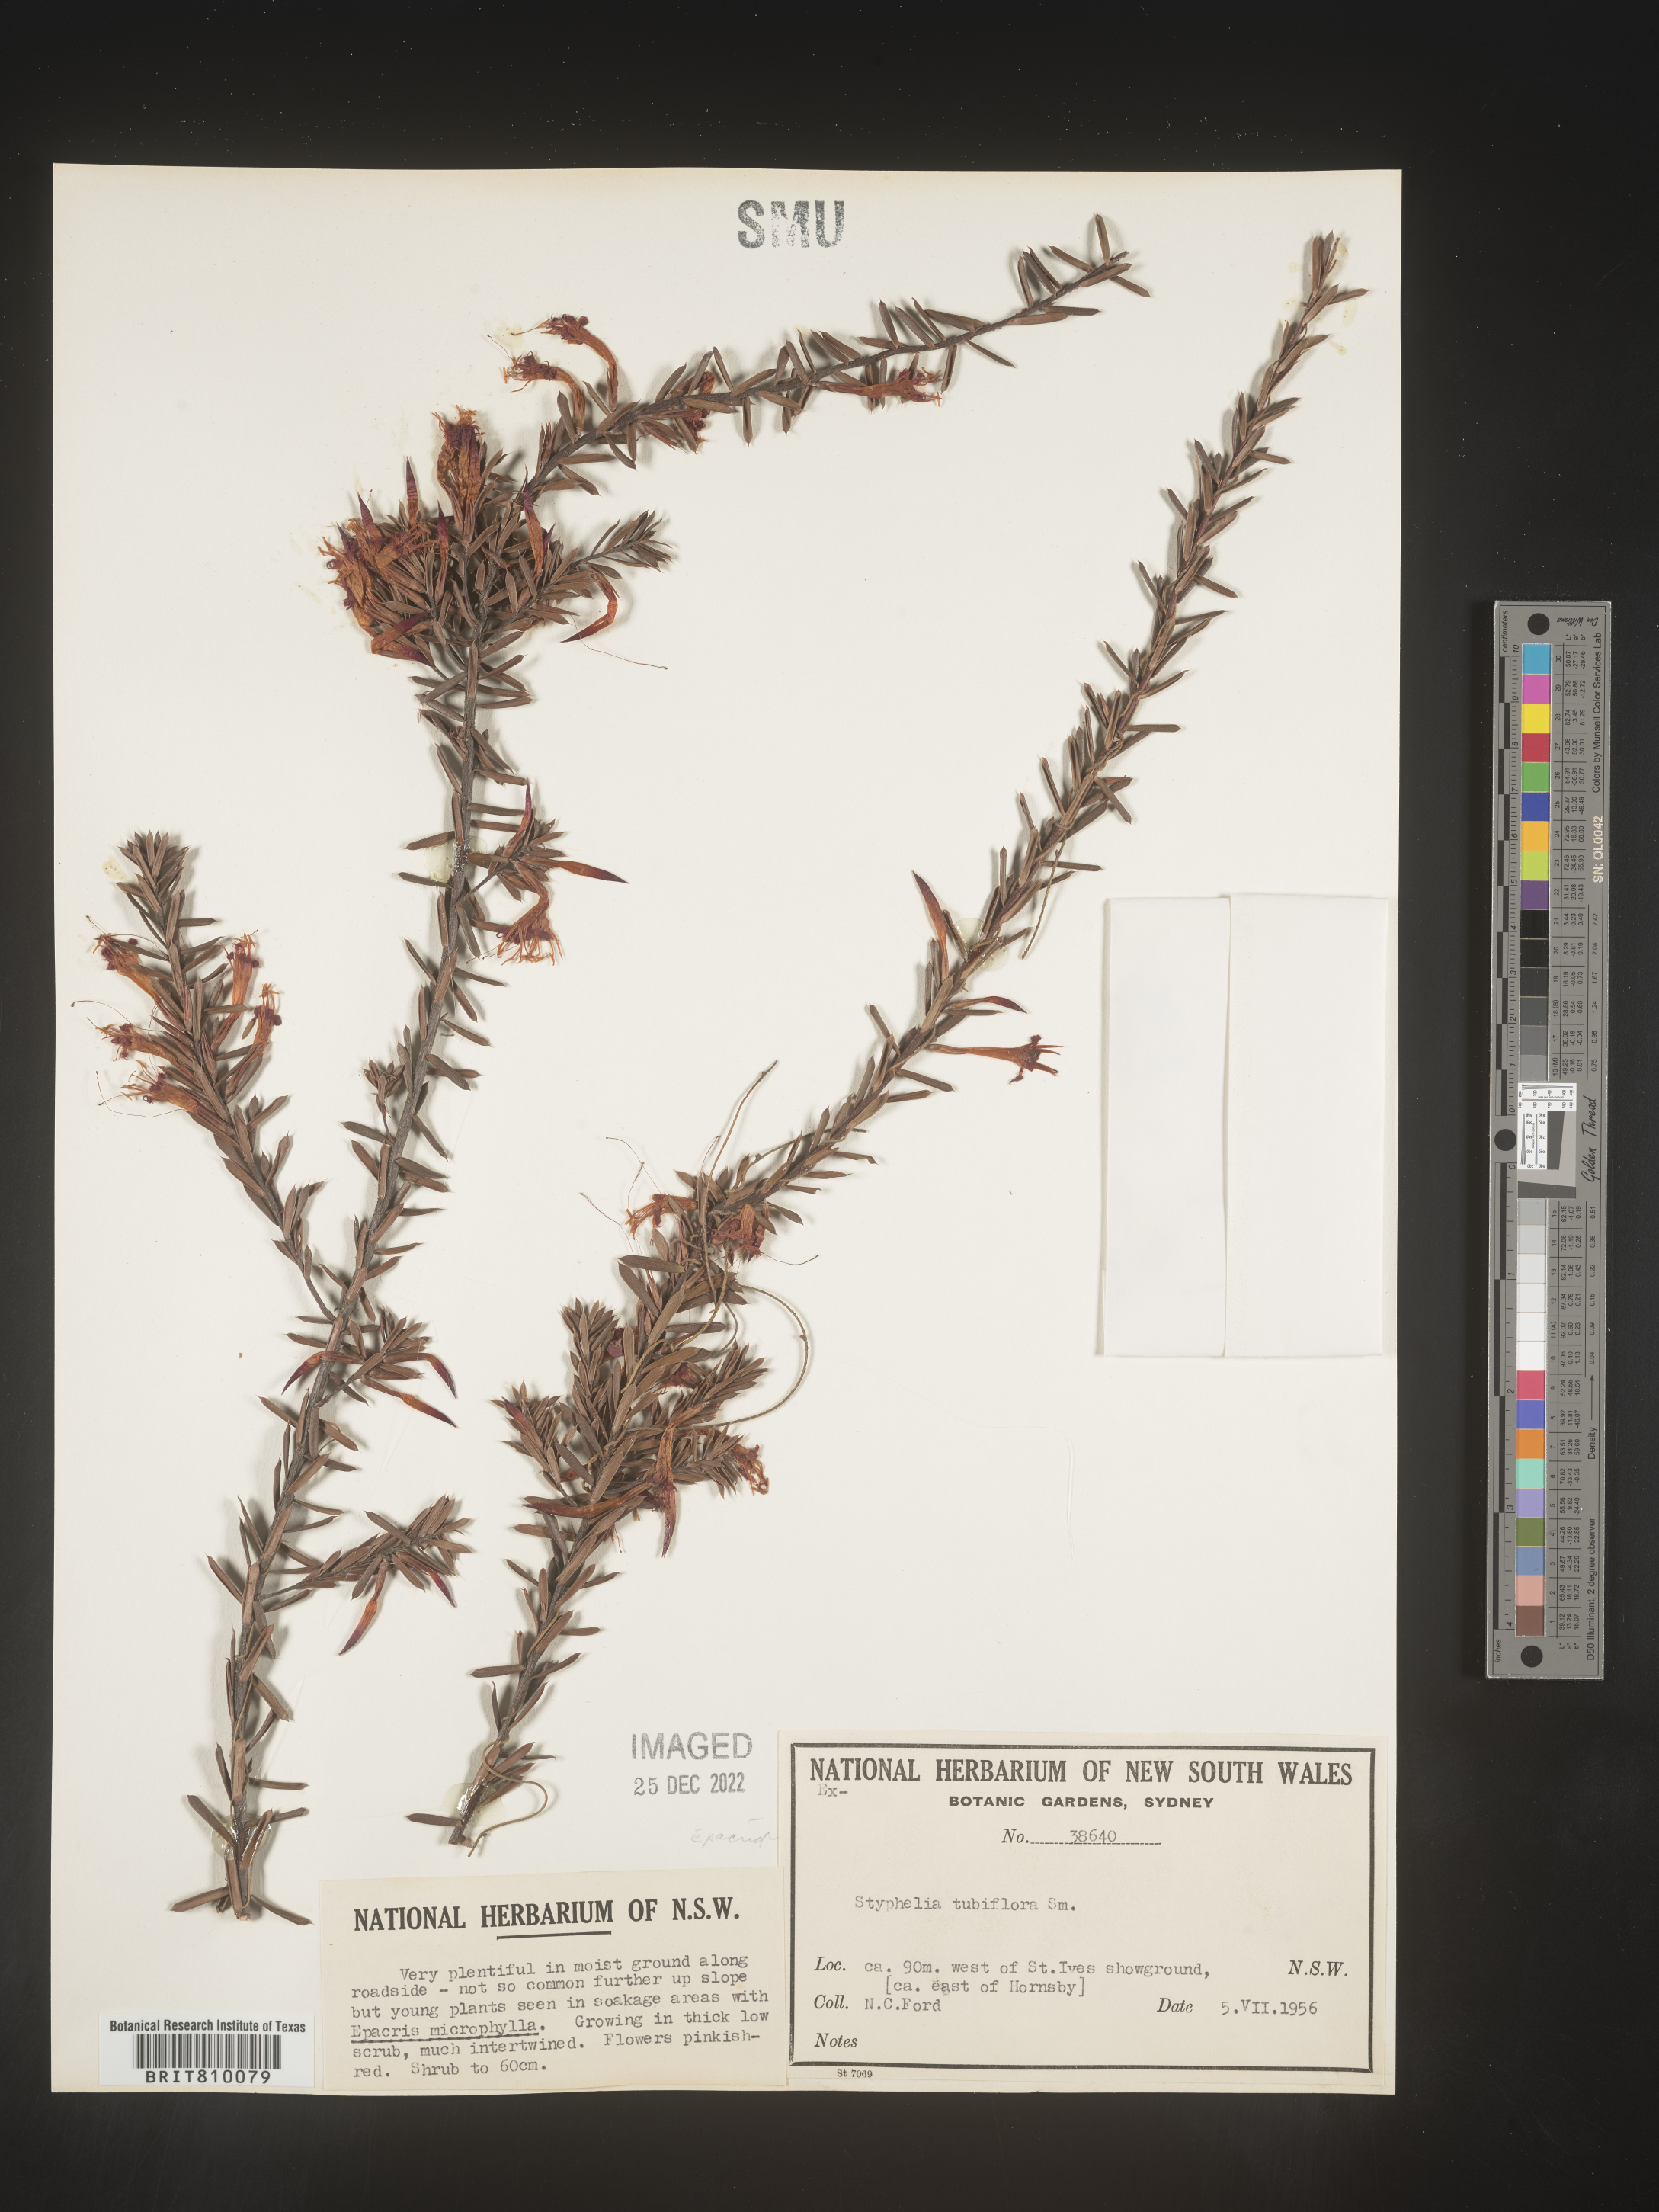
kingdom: Plantae
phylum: Tracheophyta
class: Magnoliopsida
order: Ericales
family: Ericaceae
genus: Styphelia
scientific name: Styphelia
